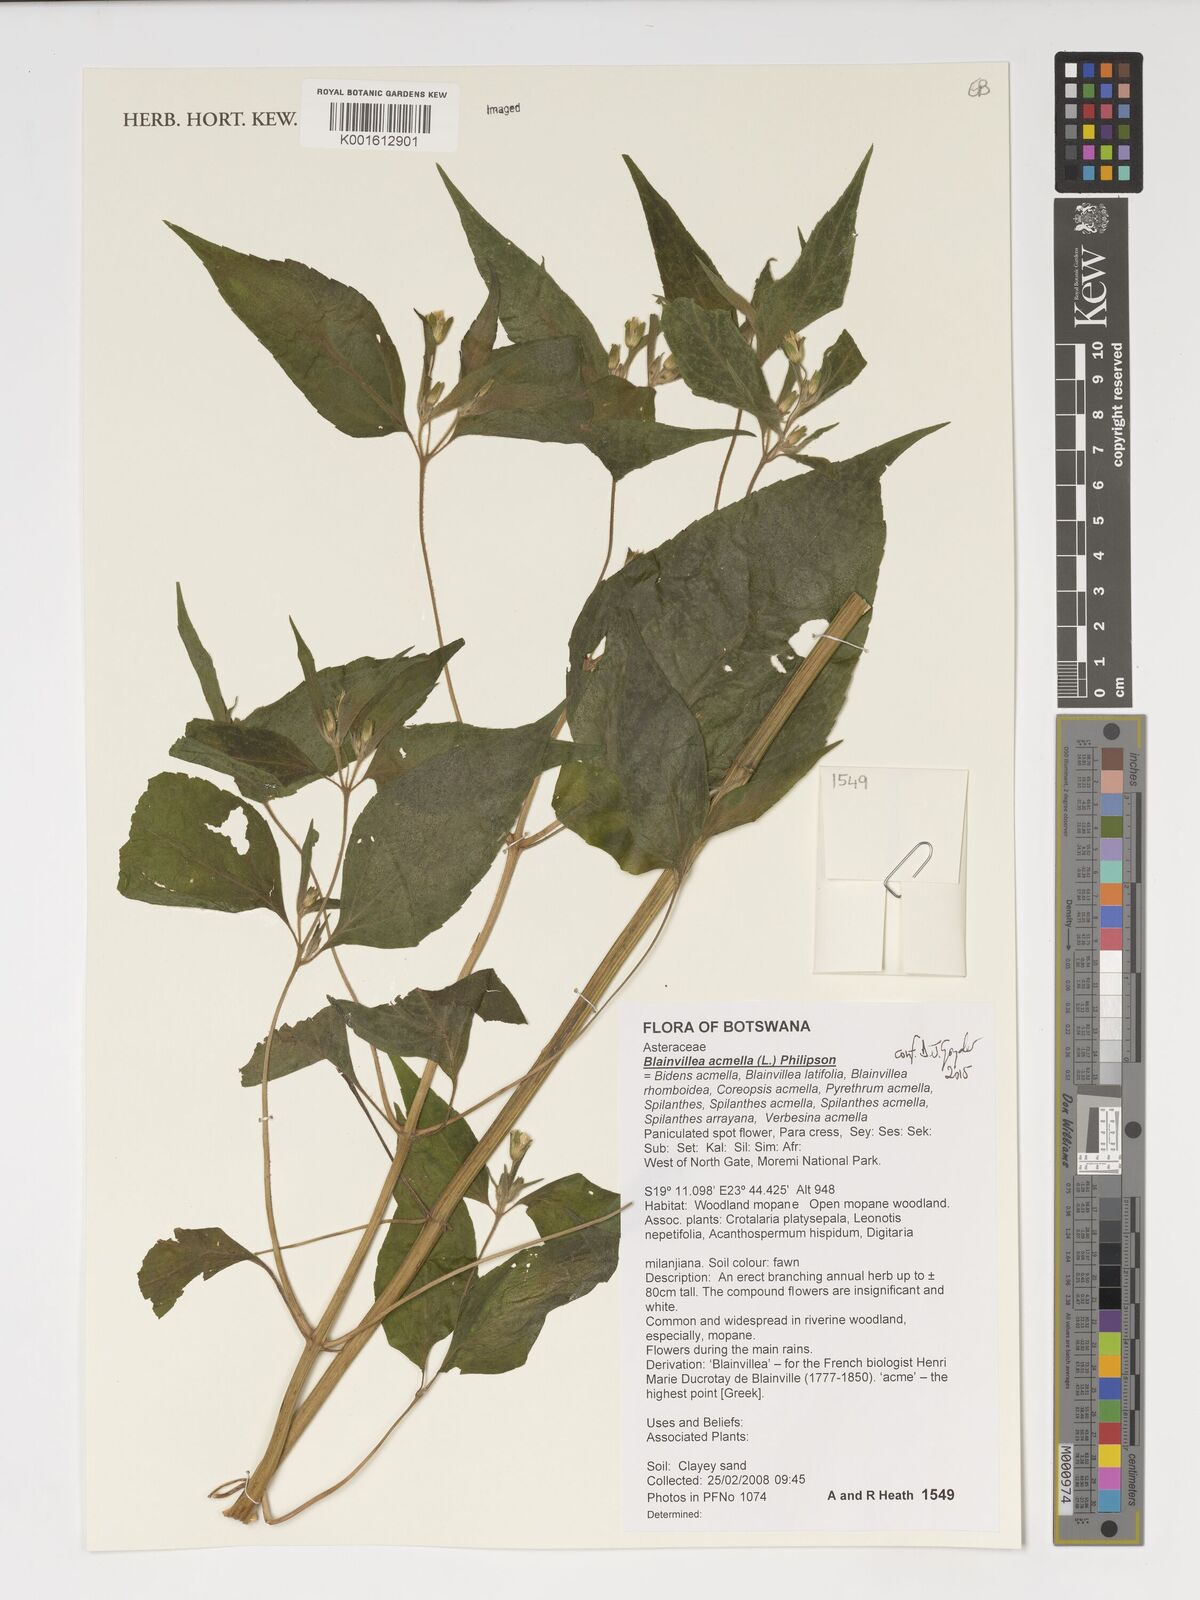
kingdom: Plantae
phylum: Tracheophyta
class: Magnoliopsida
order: Asterales
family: Asteraceae
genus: Blainvillea
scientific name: Blainvillea acmella
